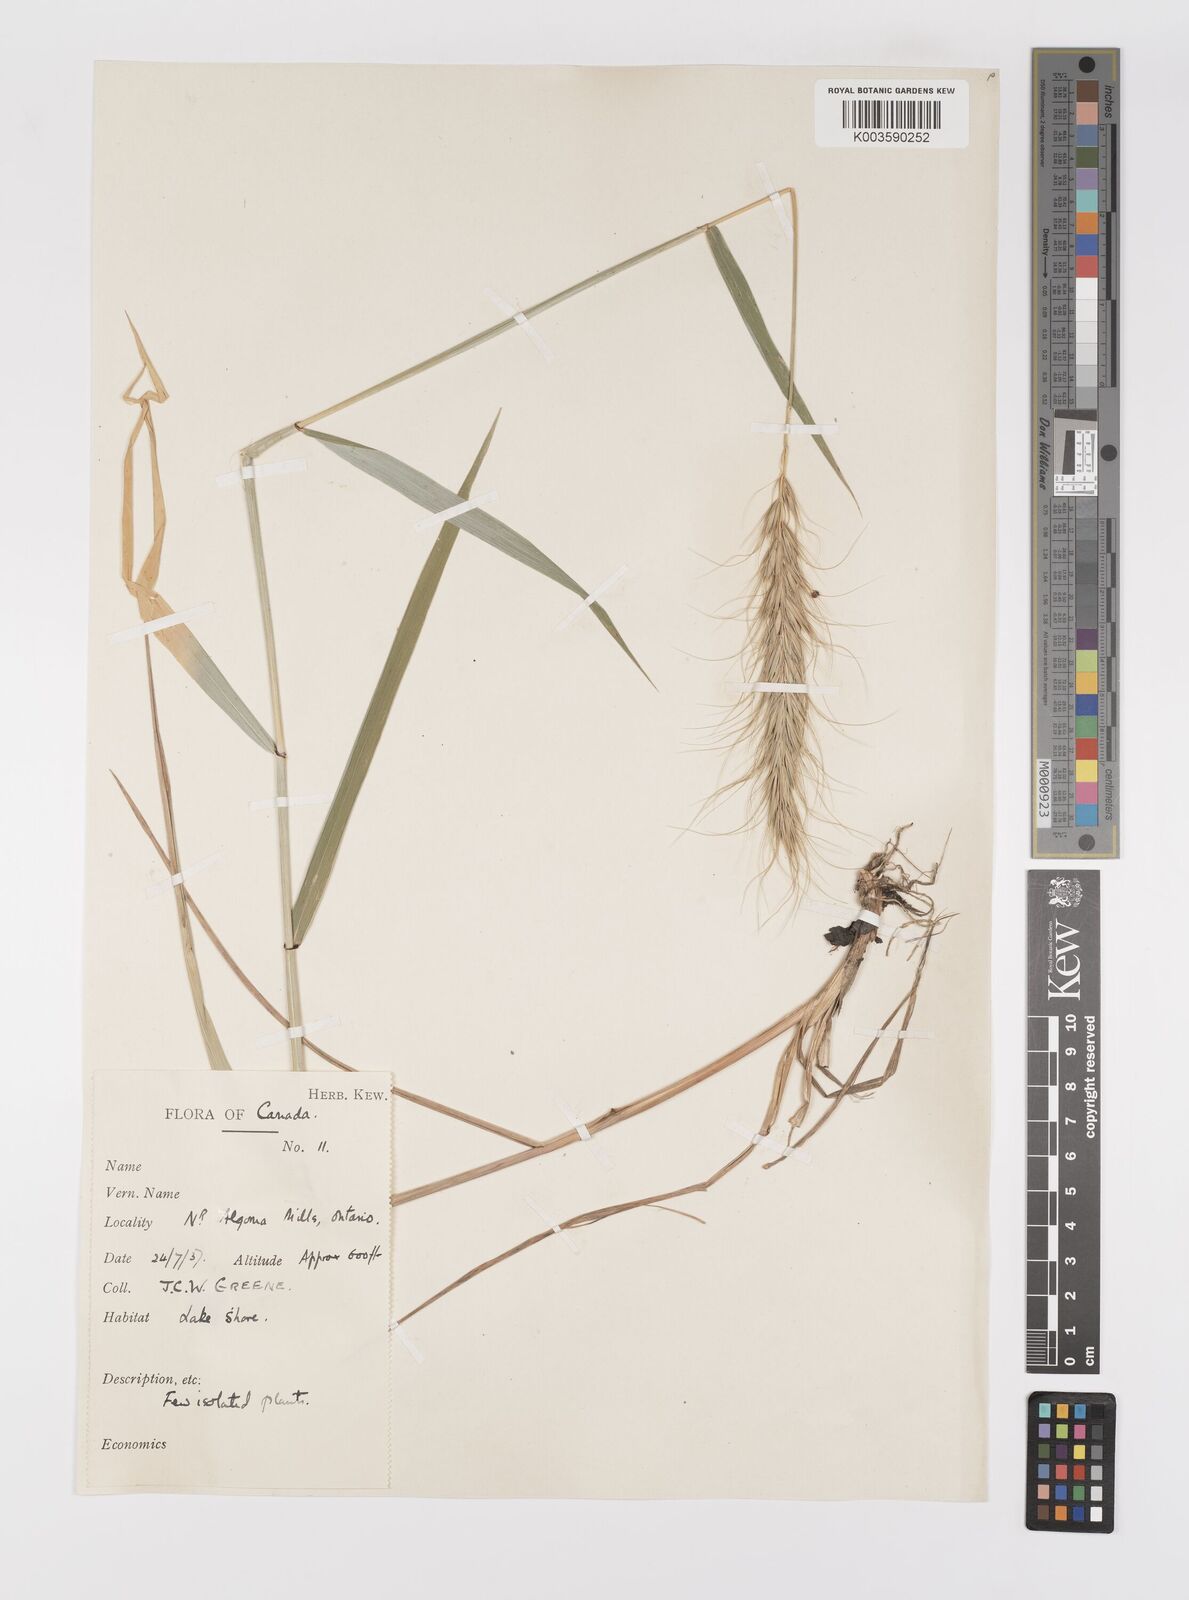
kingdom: Plantae
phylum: Tracheophyta
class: Liliopsida
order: Poales
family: Poaceae
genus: Elymus
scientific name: Elymus
